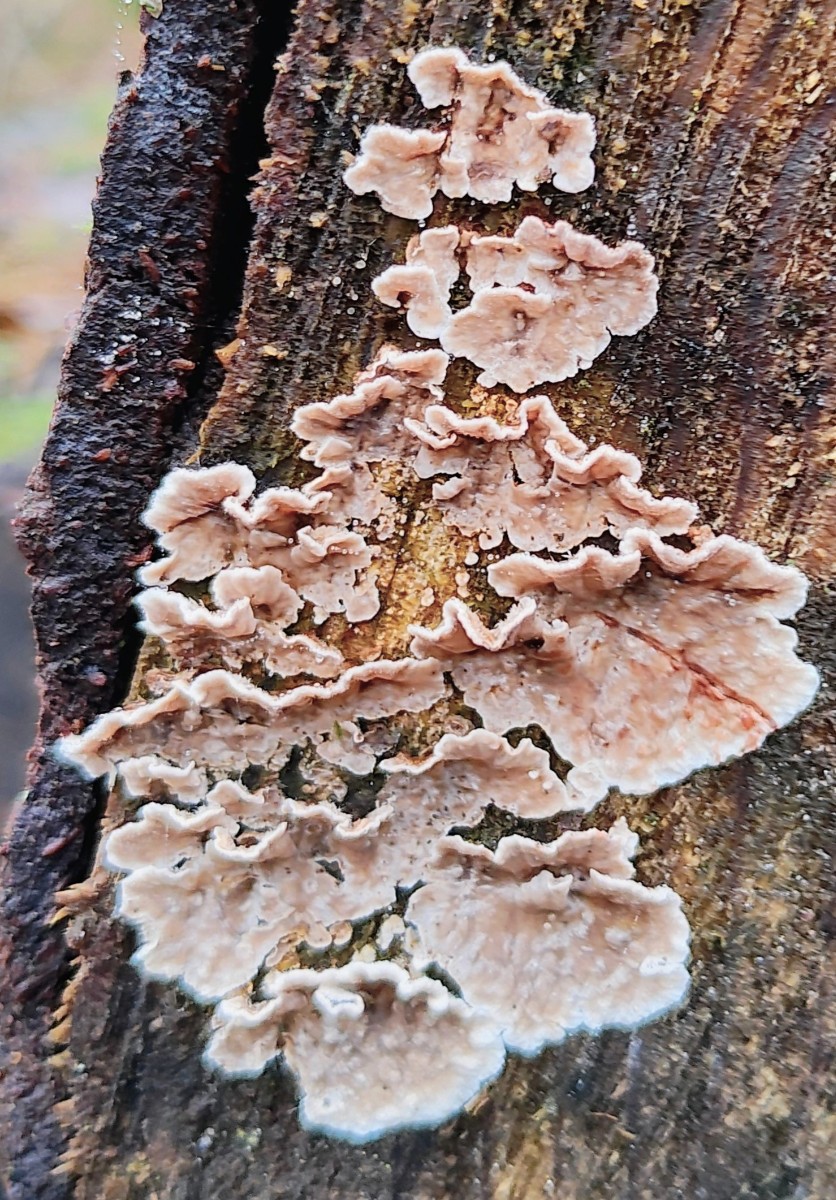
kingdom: Fungi
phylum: Basidiomycota
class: Agaricomycetes
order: Russulales
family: Stereaceae
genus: Stereum
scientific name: Stereum sanguinolentum
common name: blødende lædersvamp
